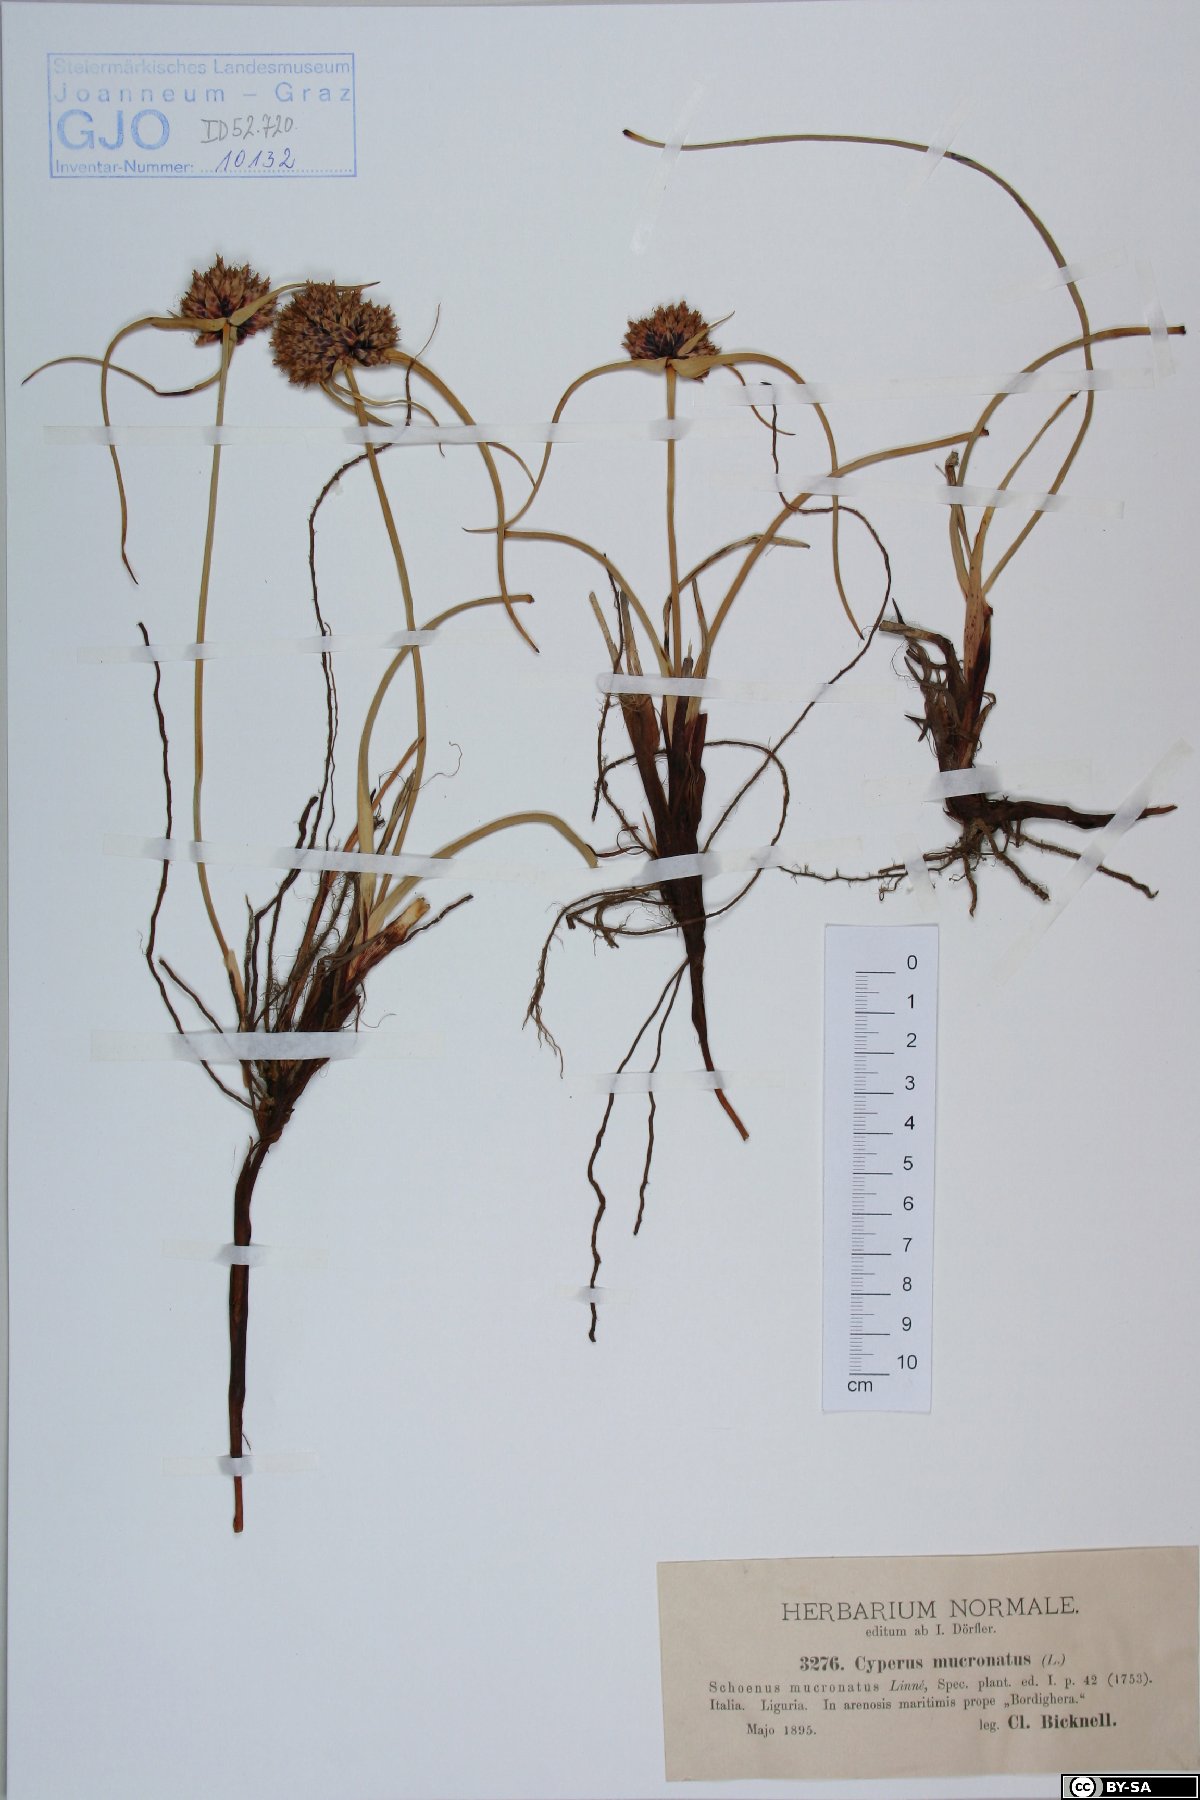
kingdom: Plantae
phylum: Tracheophyta
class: Liliopsida
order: Poales
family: Cyperaceae
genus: Cyperus
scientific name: Cyperus capitatus
